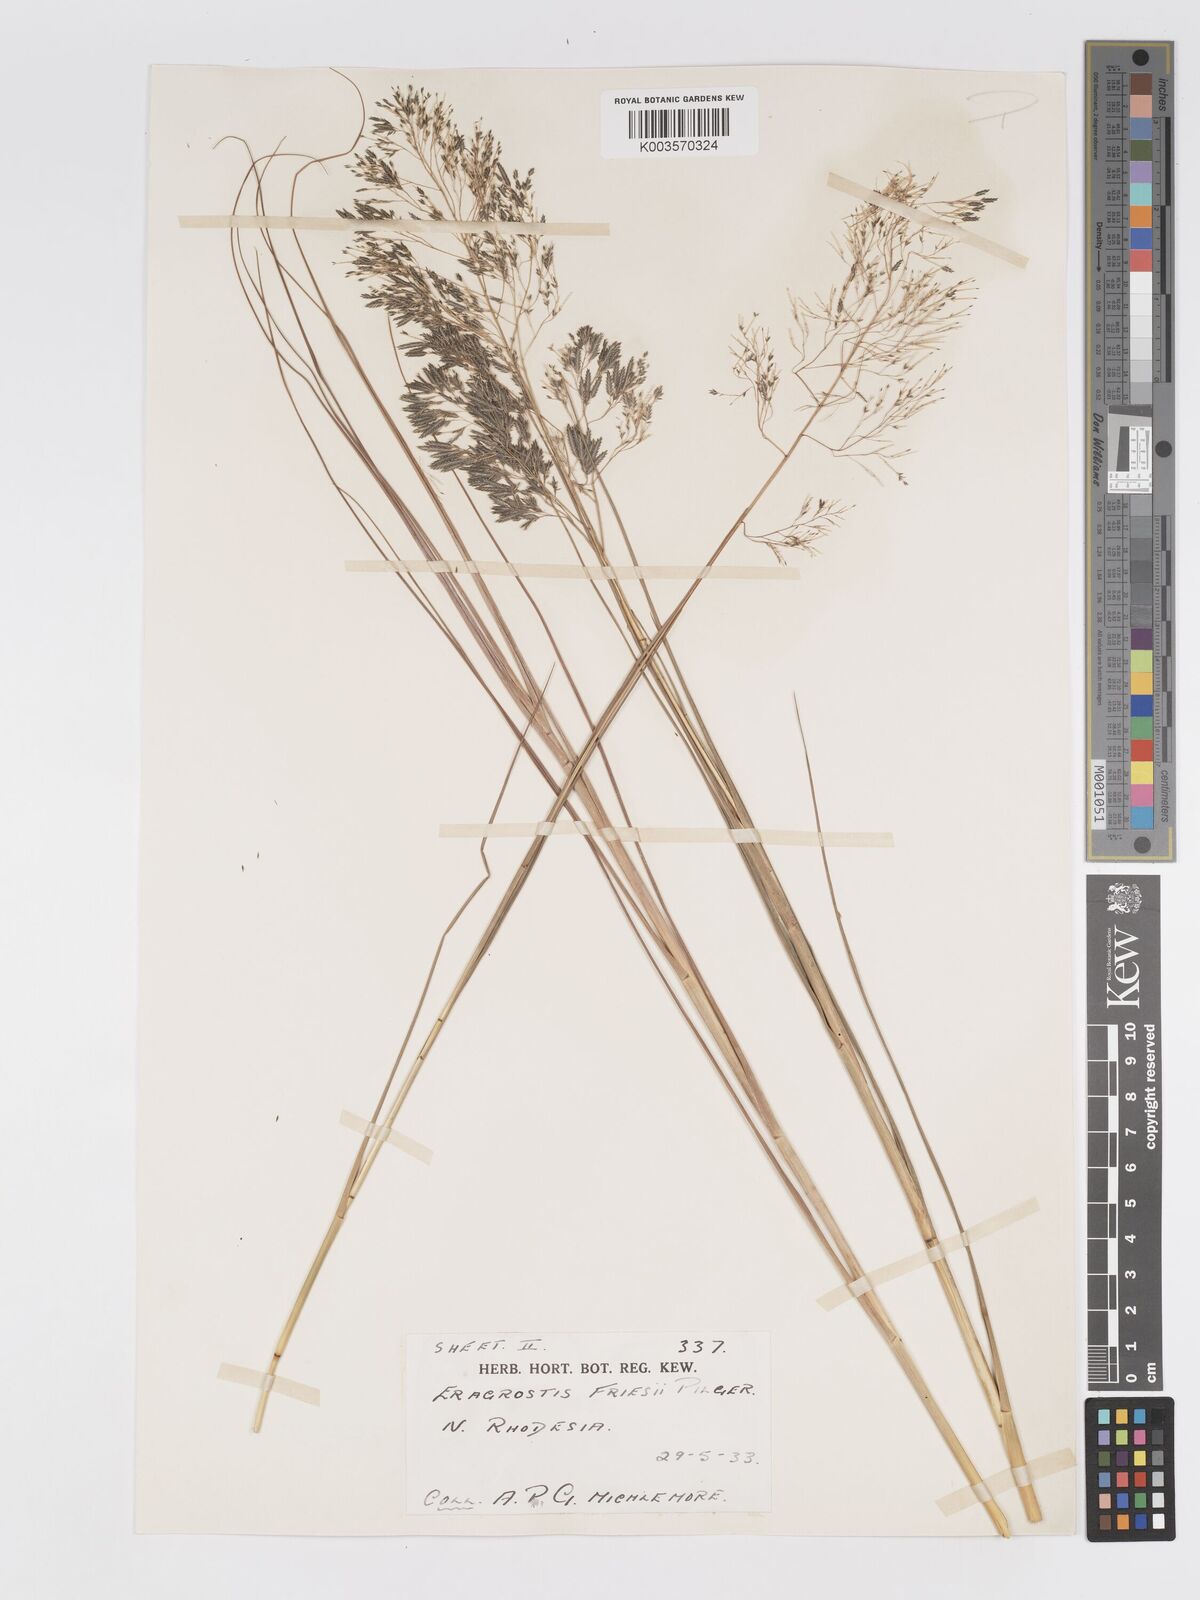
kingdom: Plantae
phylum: Tracheophyta
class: Liliopsida
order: Poales
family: Poaceae
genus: Eragrostis
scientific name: Eragrostis friesii
